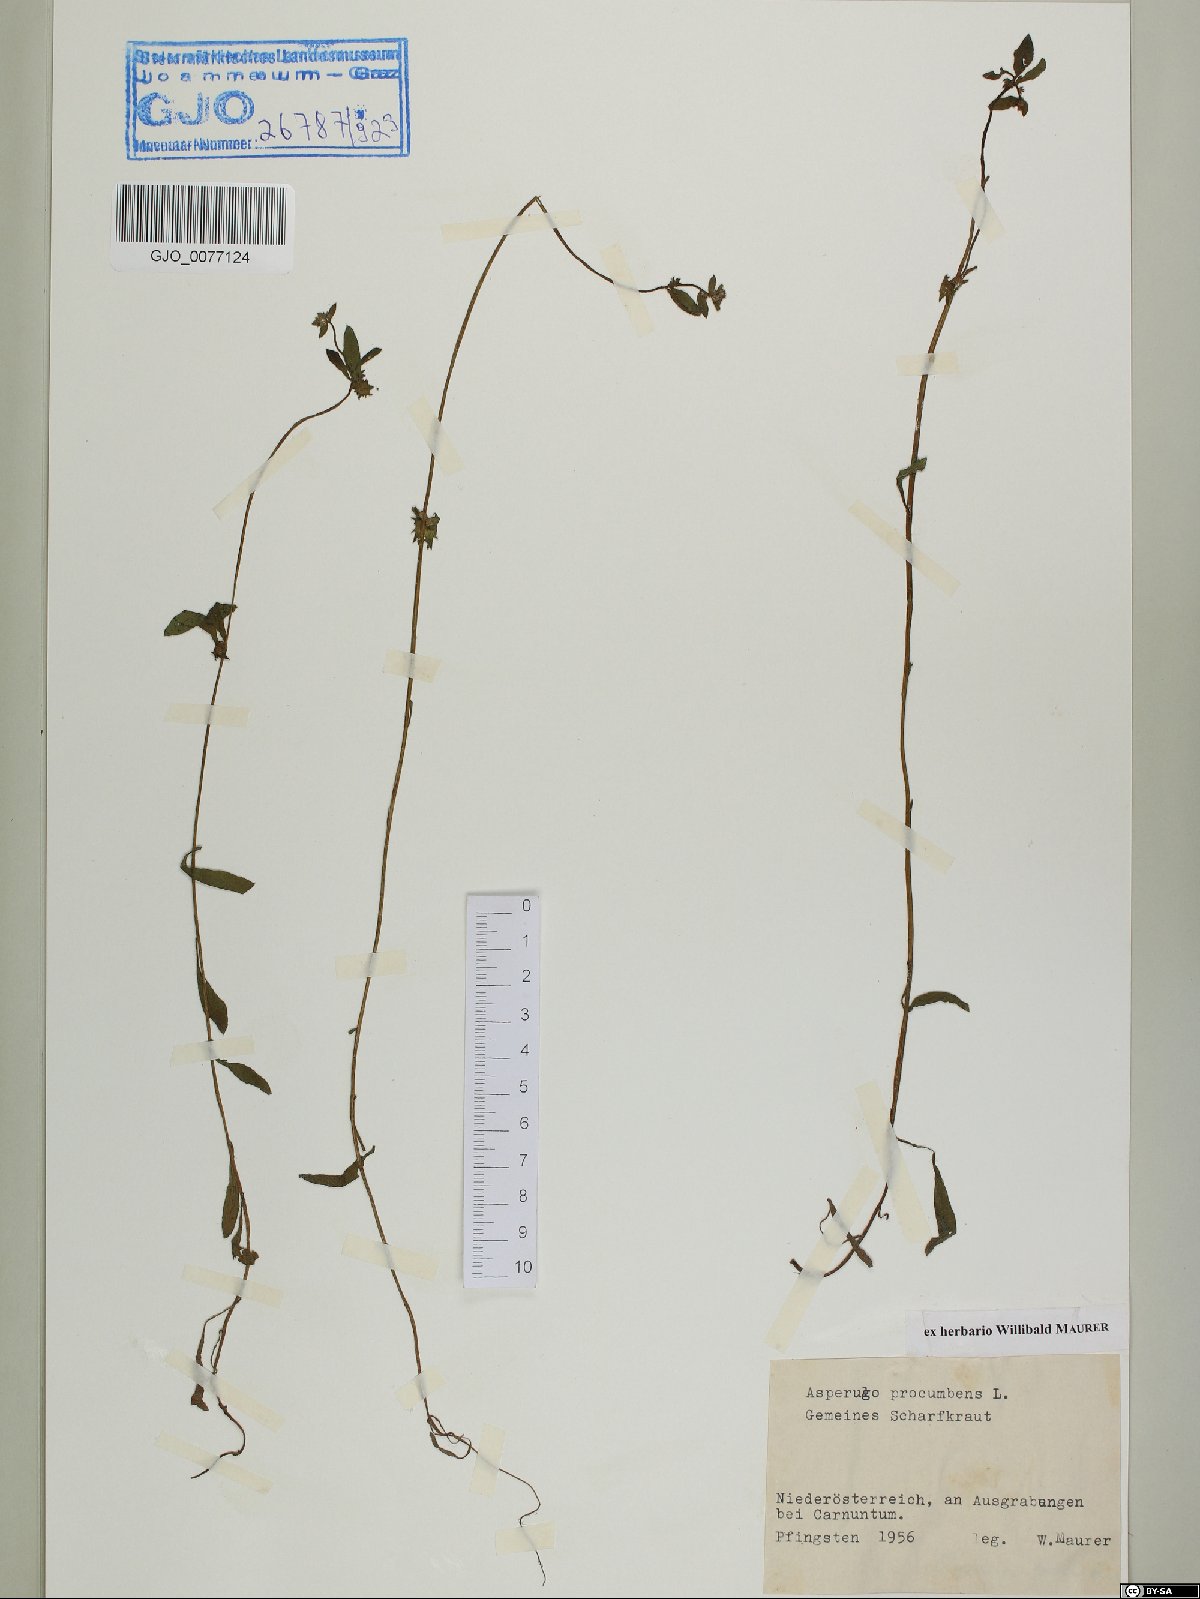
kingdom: Plantae
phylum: Tracheophyta
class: Magnoliopsida
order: Boraginales
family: Boraginaceae
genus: Asperugo
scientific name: Asperugo procumbens
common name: Madwort
